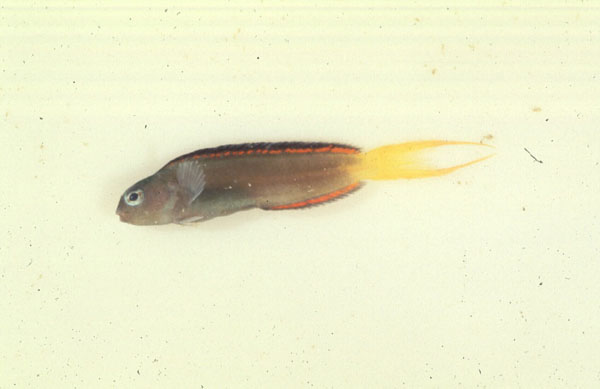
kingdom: Animalia
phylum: Chordata
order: Perciformes
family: Blenniidae
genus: Meiacanthus
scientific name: Meiacanthus mossambicus
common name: Mozambique fangblenny
